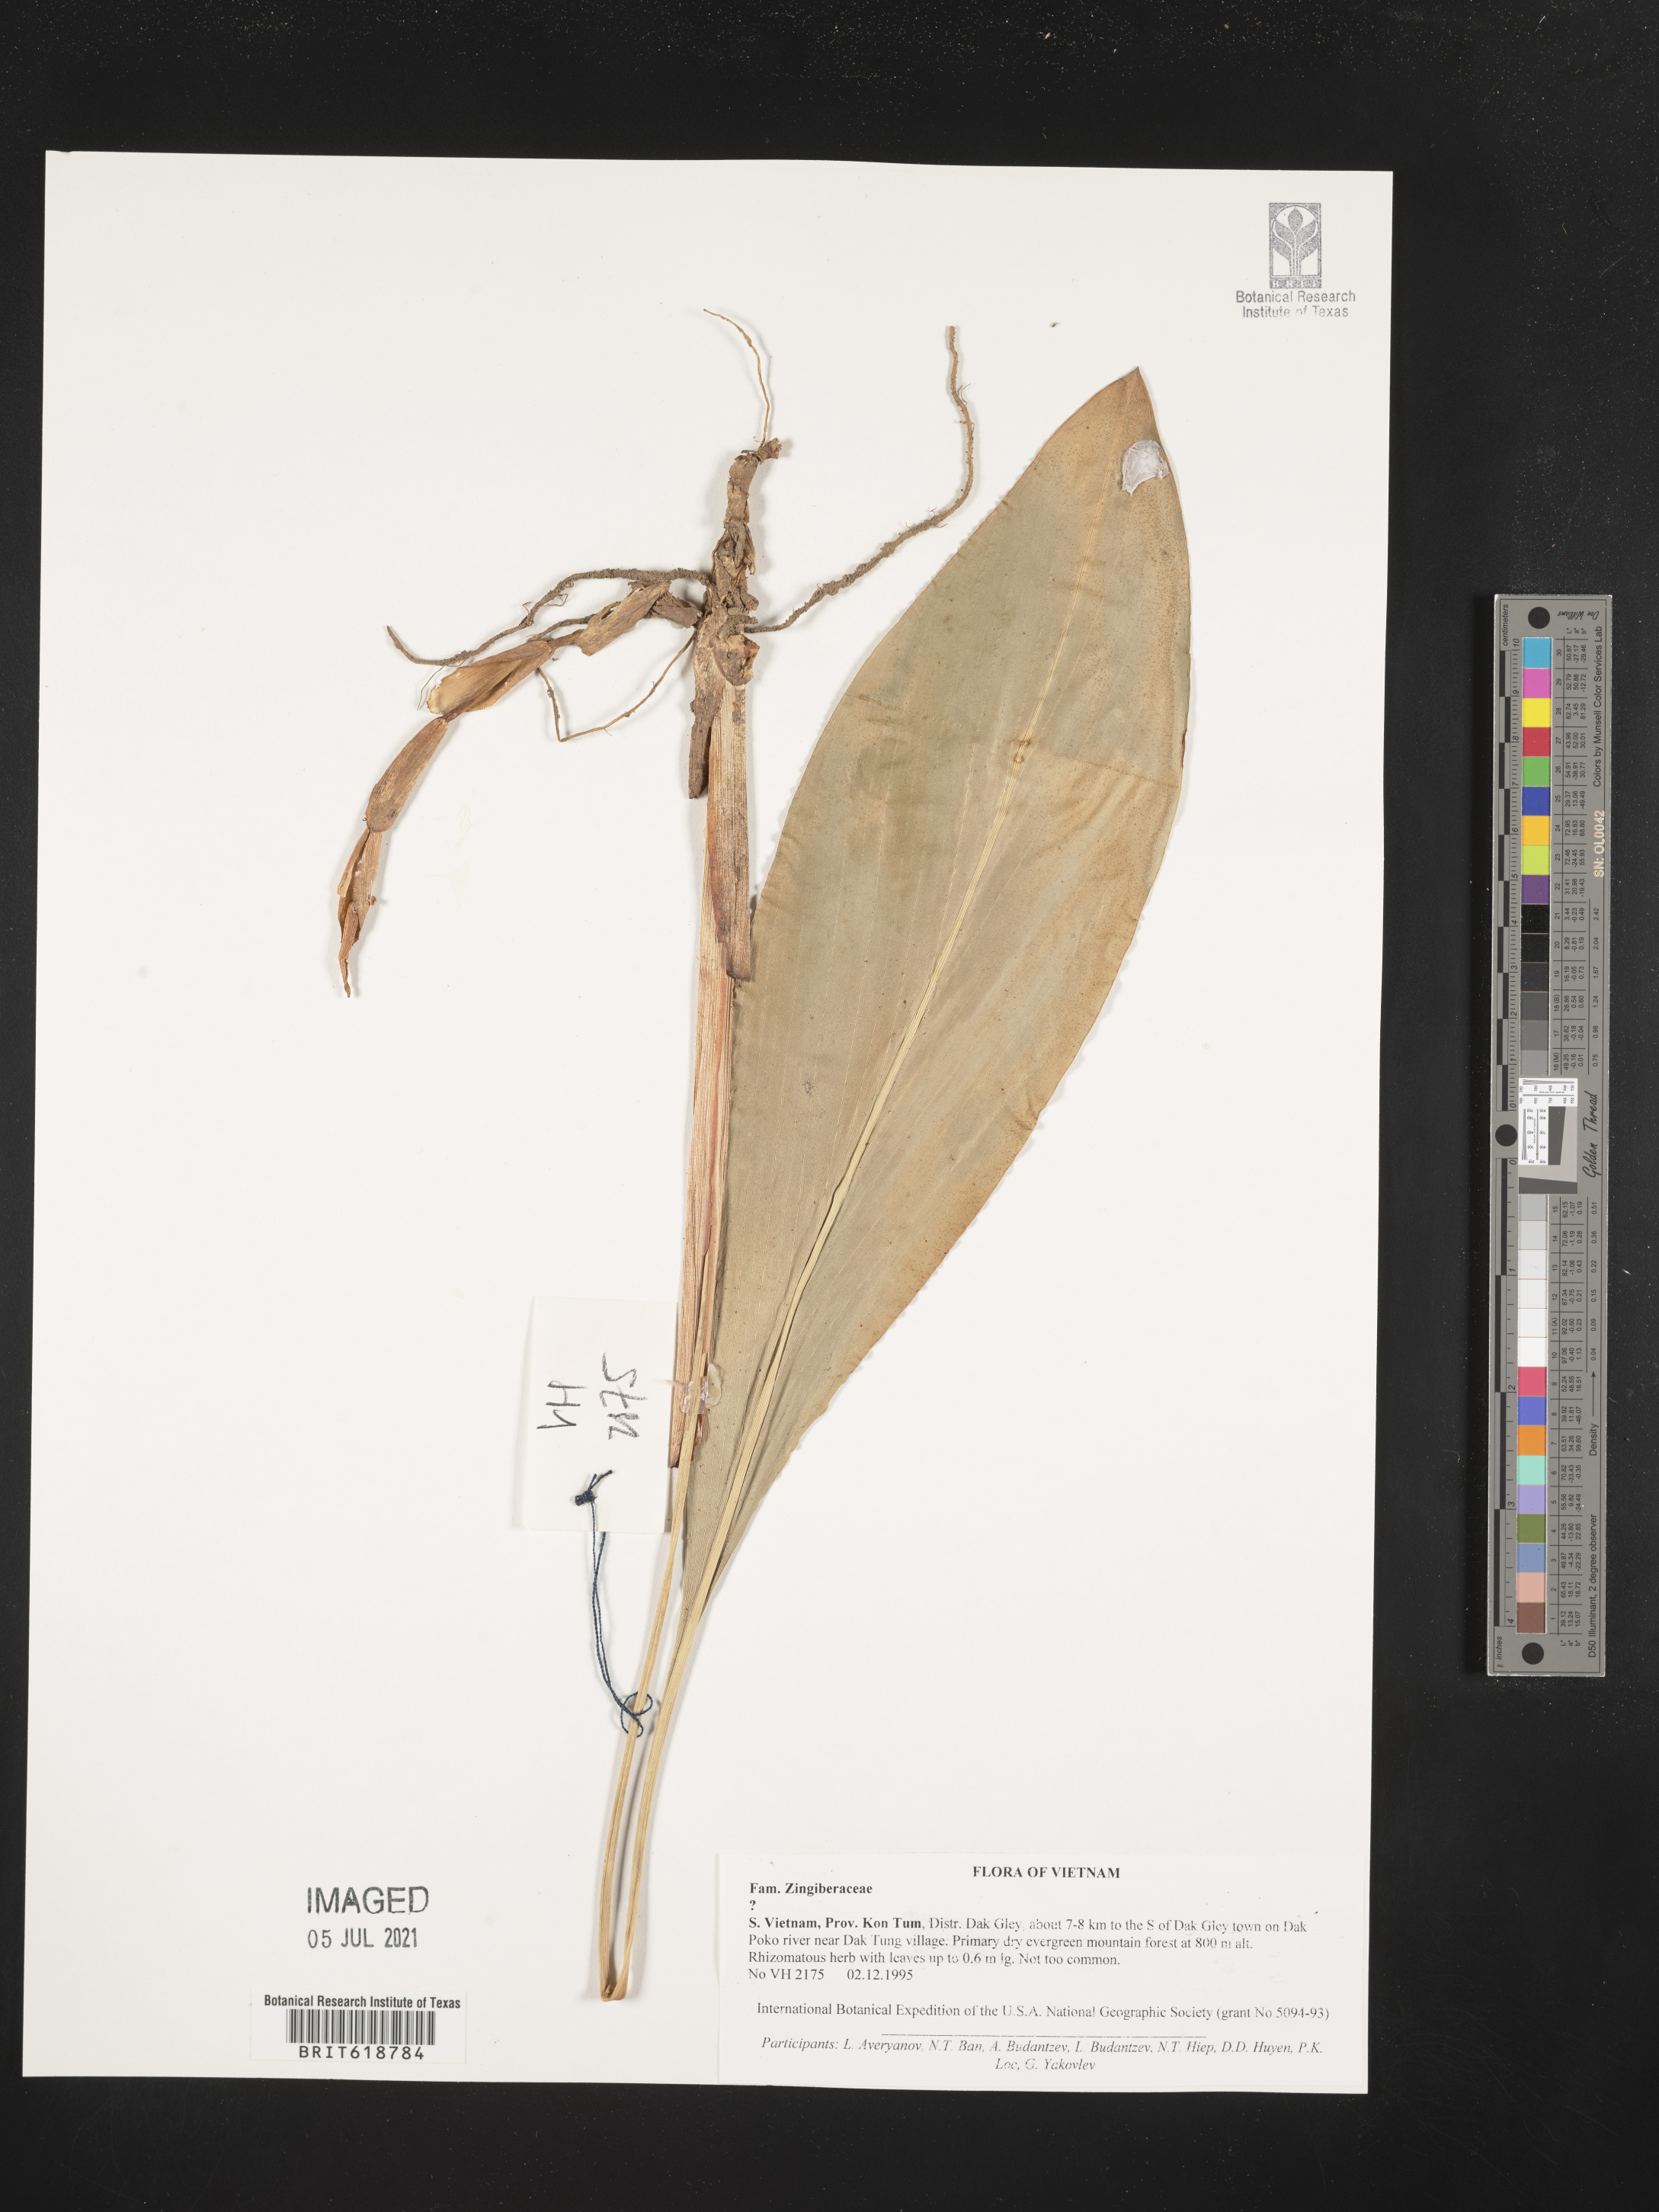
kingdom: Plantae
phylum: Tracheophyta
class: Liliopsida
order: Zingiberales
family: Zingiberaceae
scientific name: Zingiberaceae
